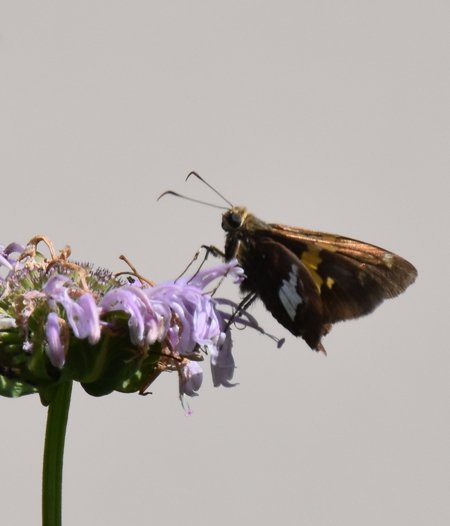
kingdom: Animalia
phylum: Arthropoda
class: Insecta
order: Lepidoptera
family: Hesperiidae
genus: Epargyreus
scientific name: Epargyreus clarus
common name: Silver-spotted Skipper
